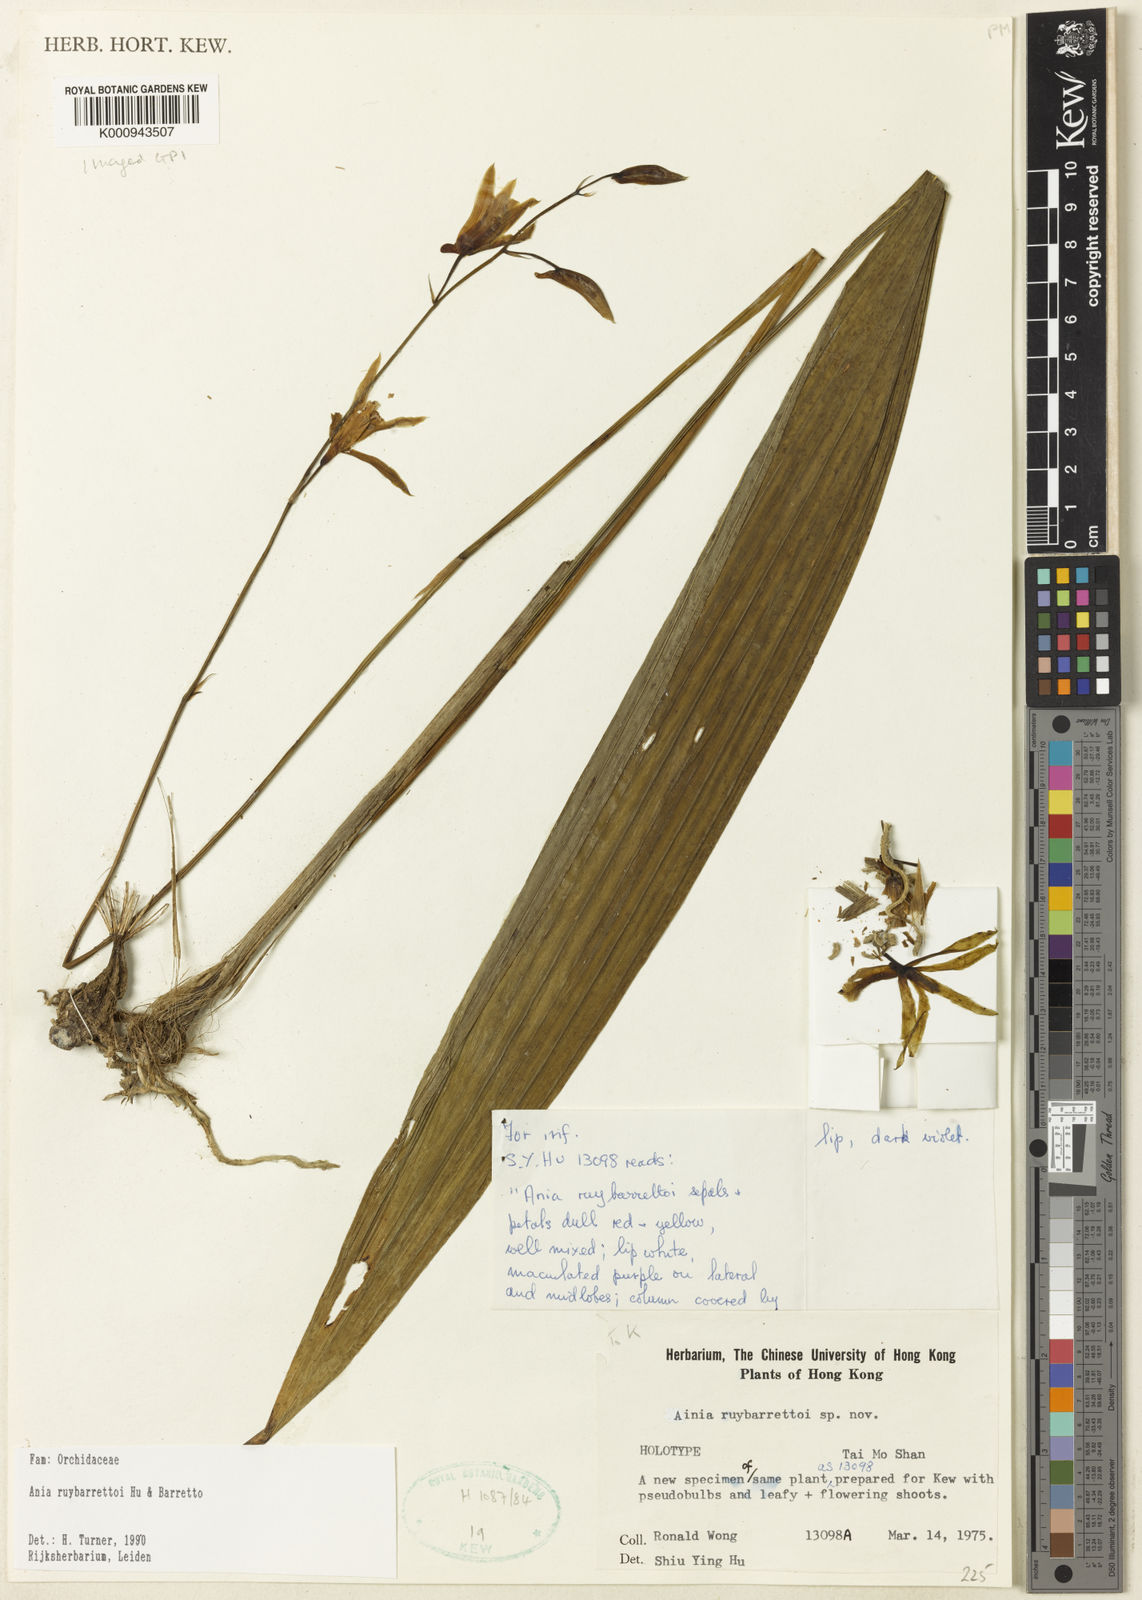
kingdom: Plantae
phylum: Tracheophyta
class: Liliopsida
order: Asparagales
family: Orchidaceae
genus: Ania
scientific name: Ania ruybarrettoi
